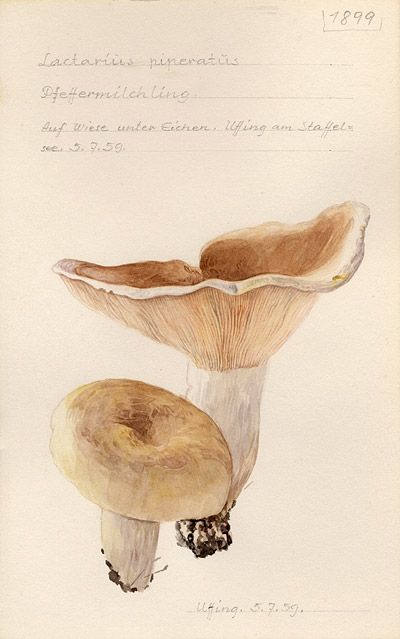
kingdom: Fungi
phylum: Basidiomycota
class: Agaricomycetes
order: Russulales
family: Russulaceae
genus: Lactifluus
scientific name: Lactifluus piperatus
